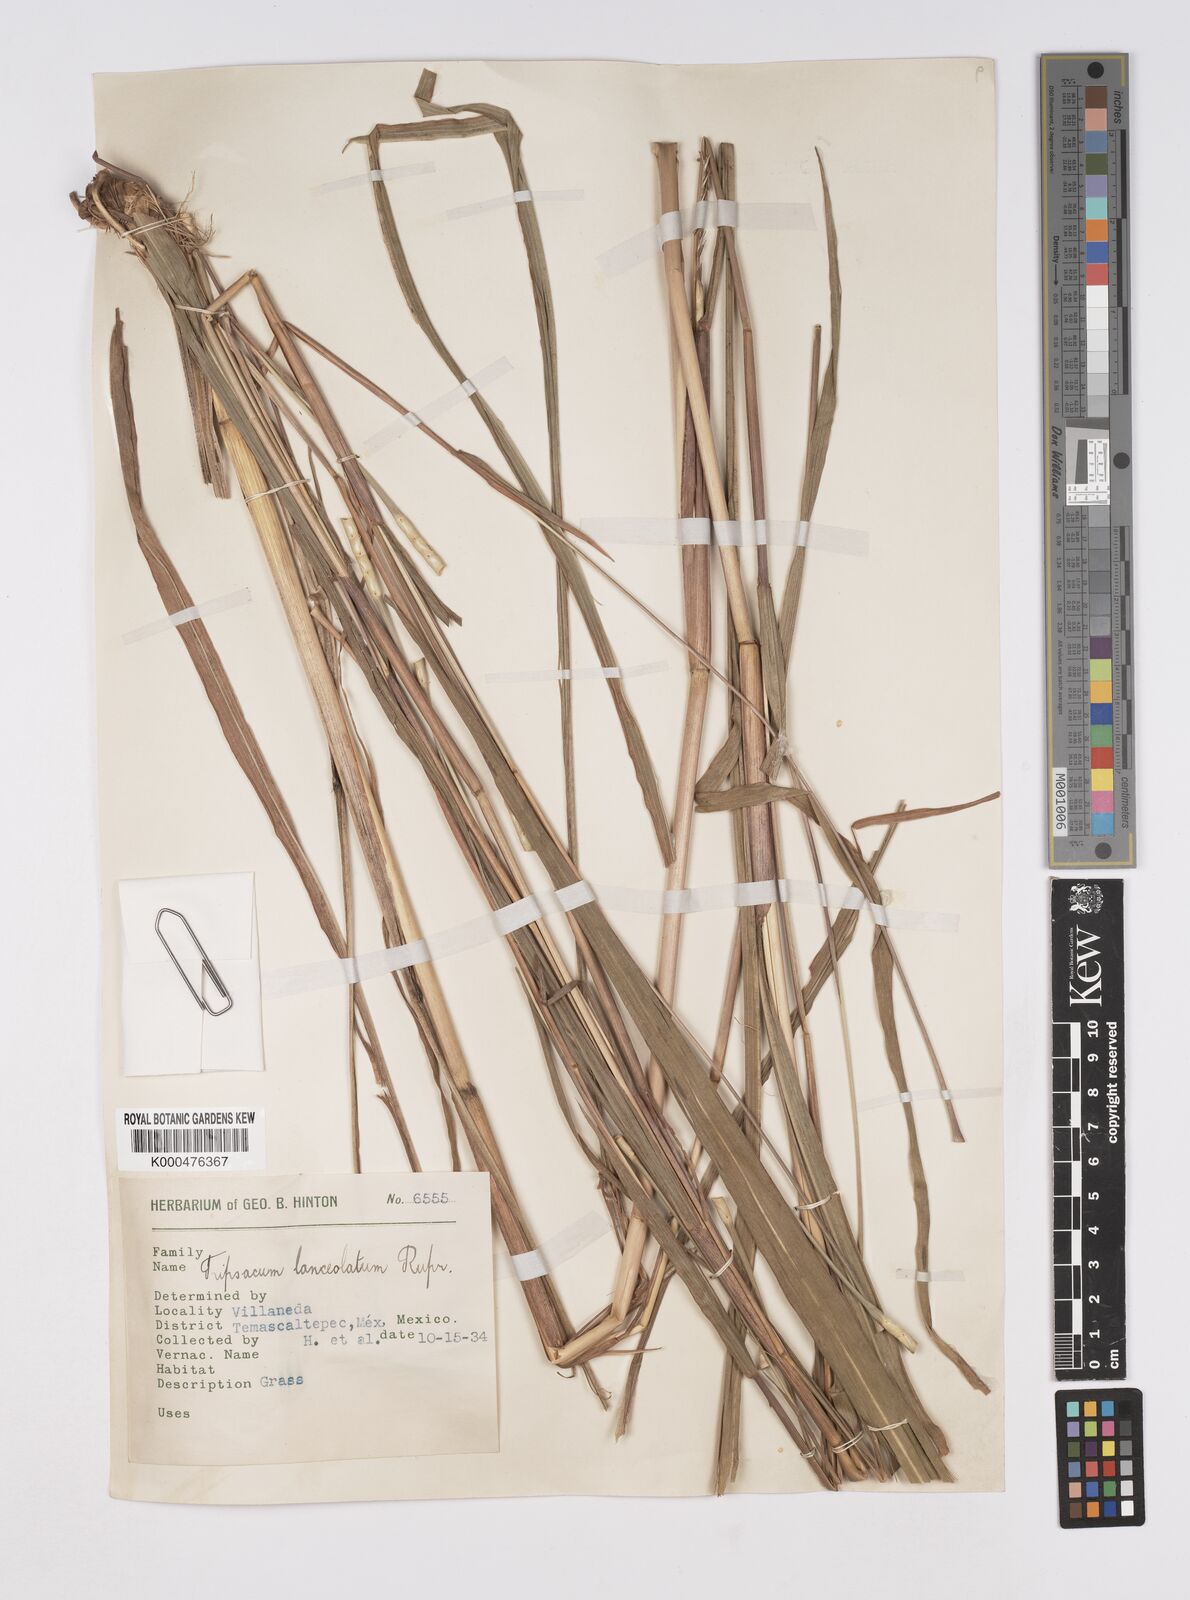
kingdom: Plantae
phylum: Tracheophyta
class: Liliopsida
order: Poales
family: Poaceae
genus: Tripsacum
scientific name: Tripsacum australe
